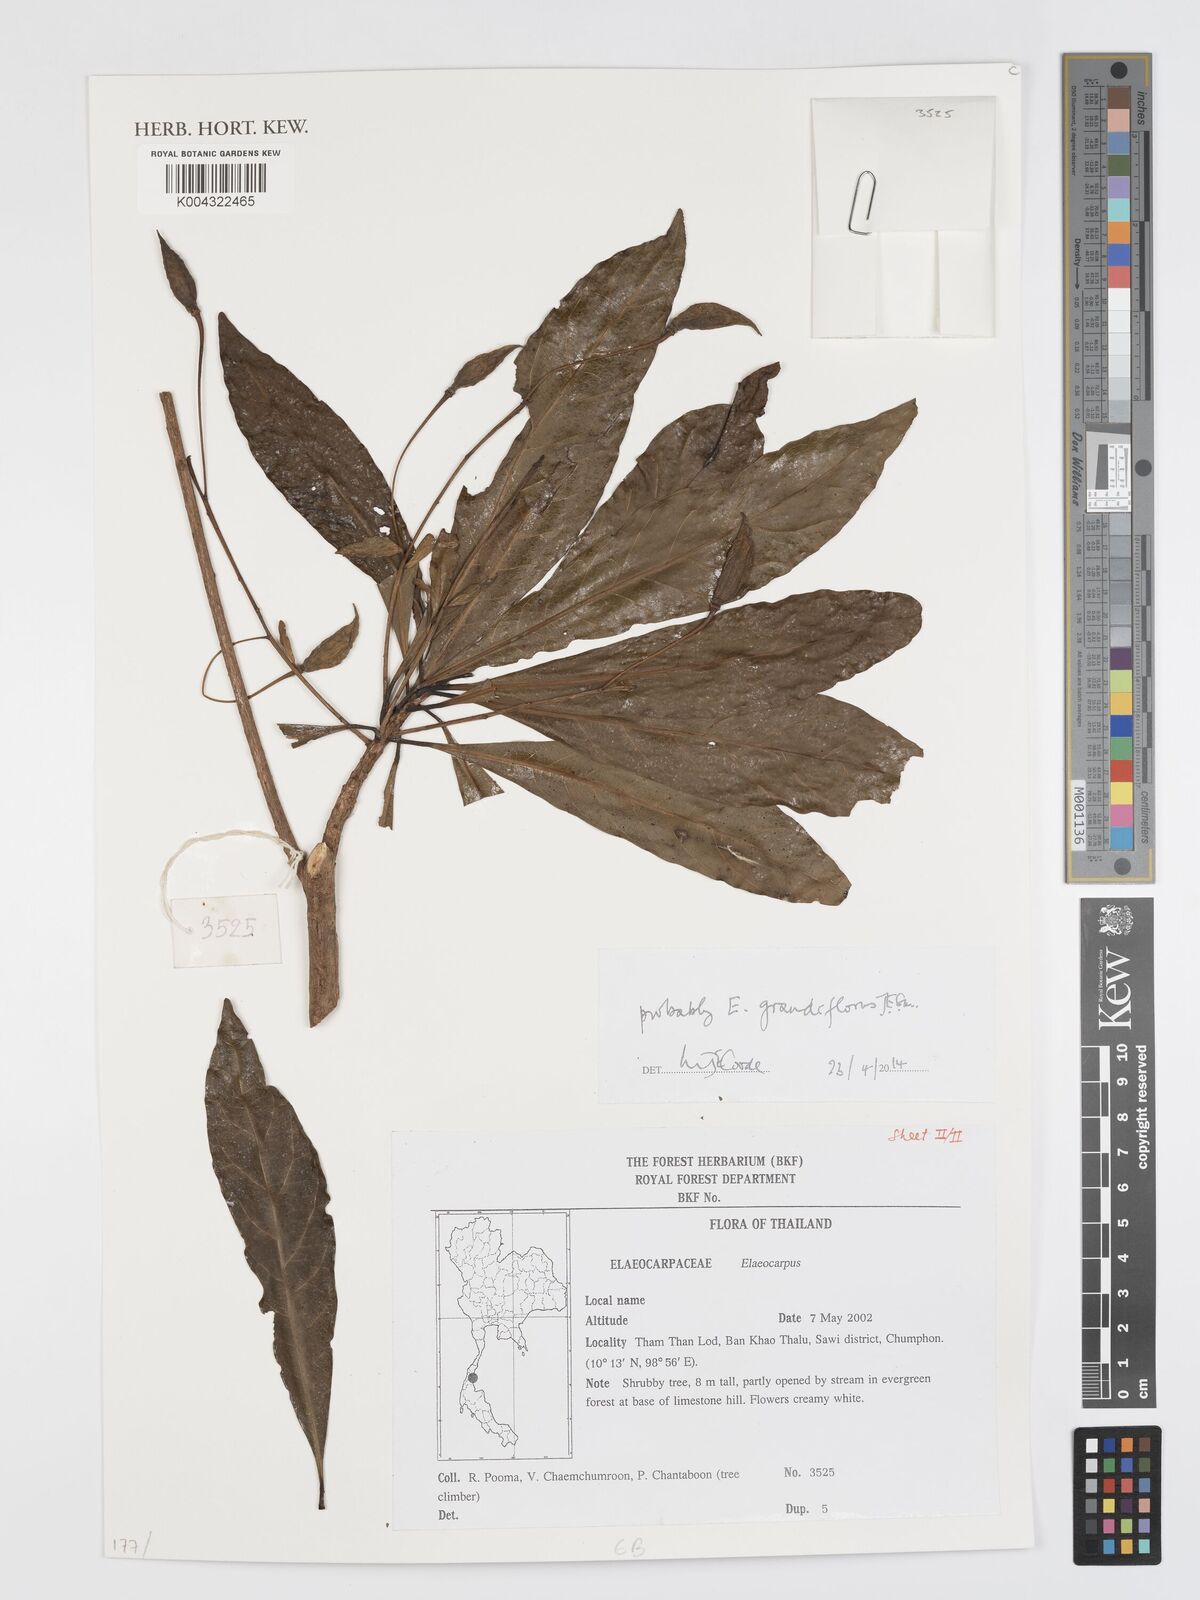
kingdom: Plantae
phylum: Tracheophyta
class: Magnoliopsida
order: Oxalidales
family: Elaeocarpaceae
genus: Elaeocarpus
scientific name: Elaeocarpus grandiflorus
